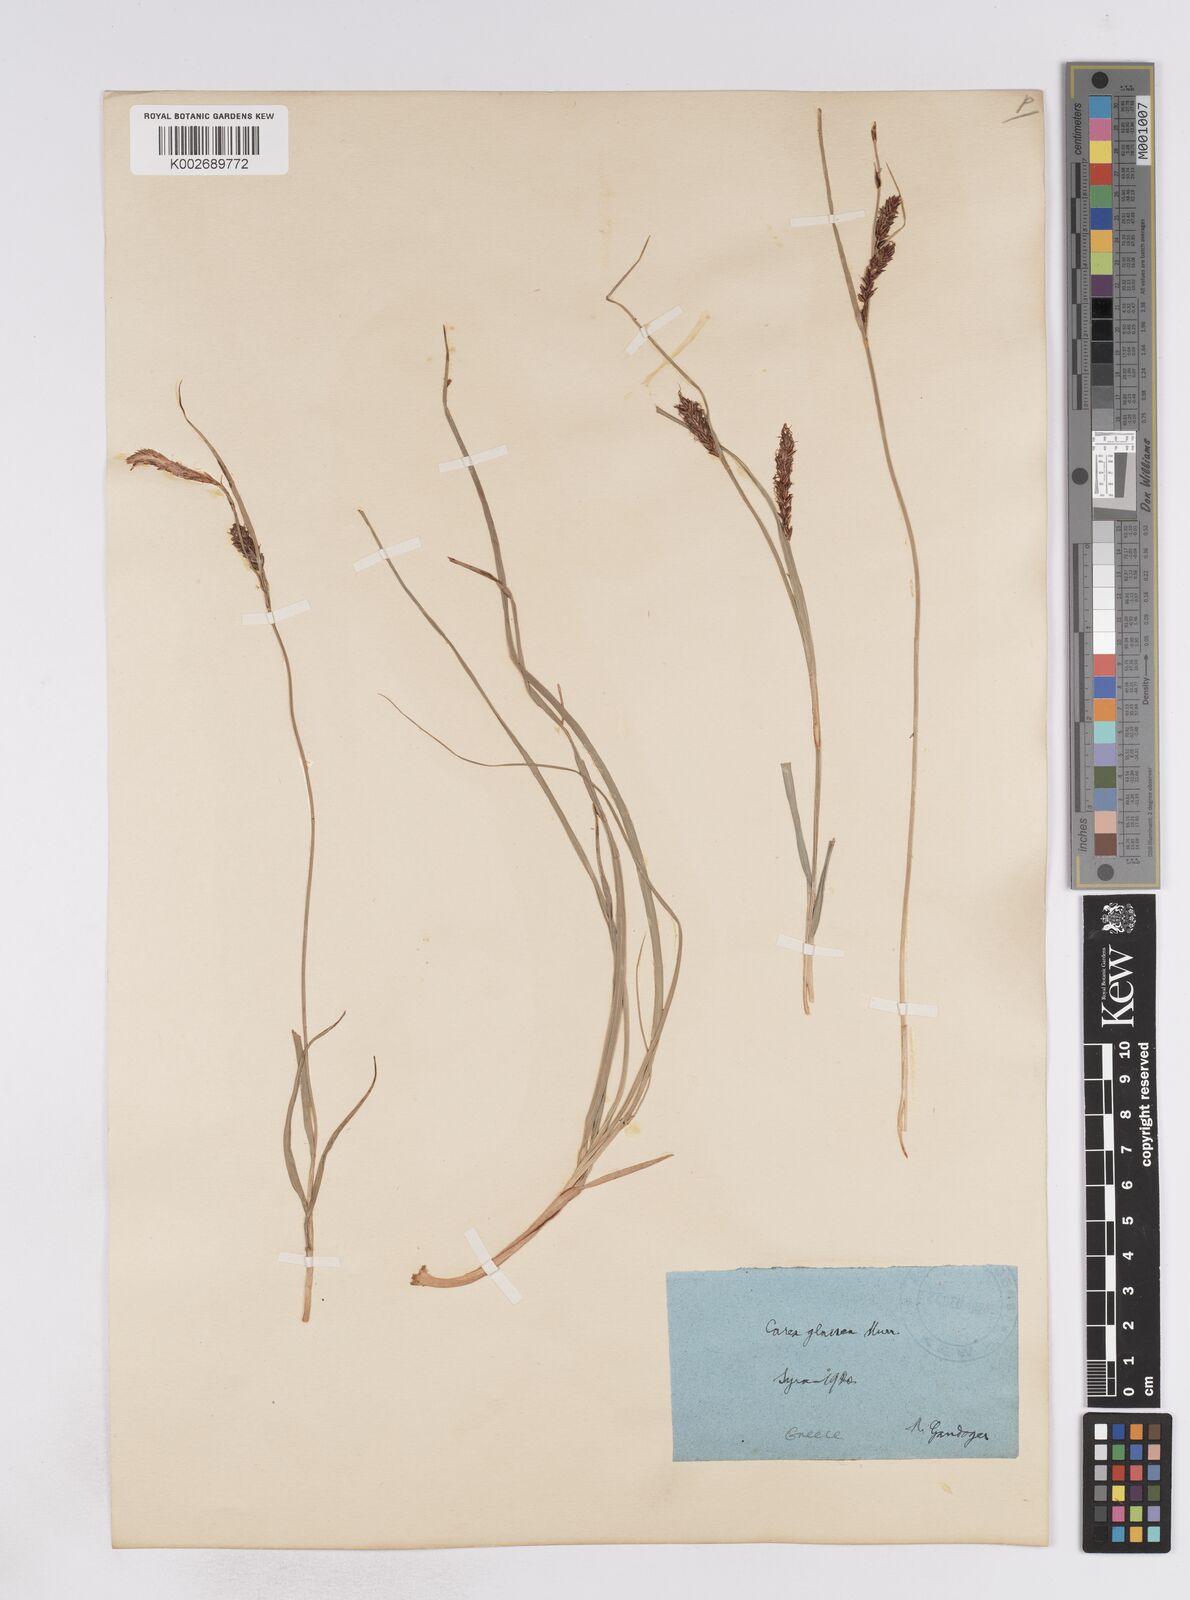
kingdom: Plantae
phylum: Tracheophyta
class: Liliopsida
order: Poales
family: Cyperaceae
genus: Carex
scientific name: Carex flacca
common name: Glaucous sedge
